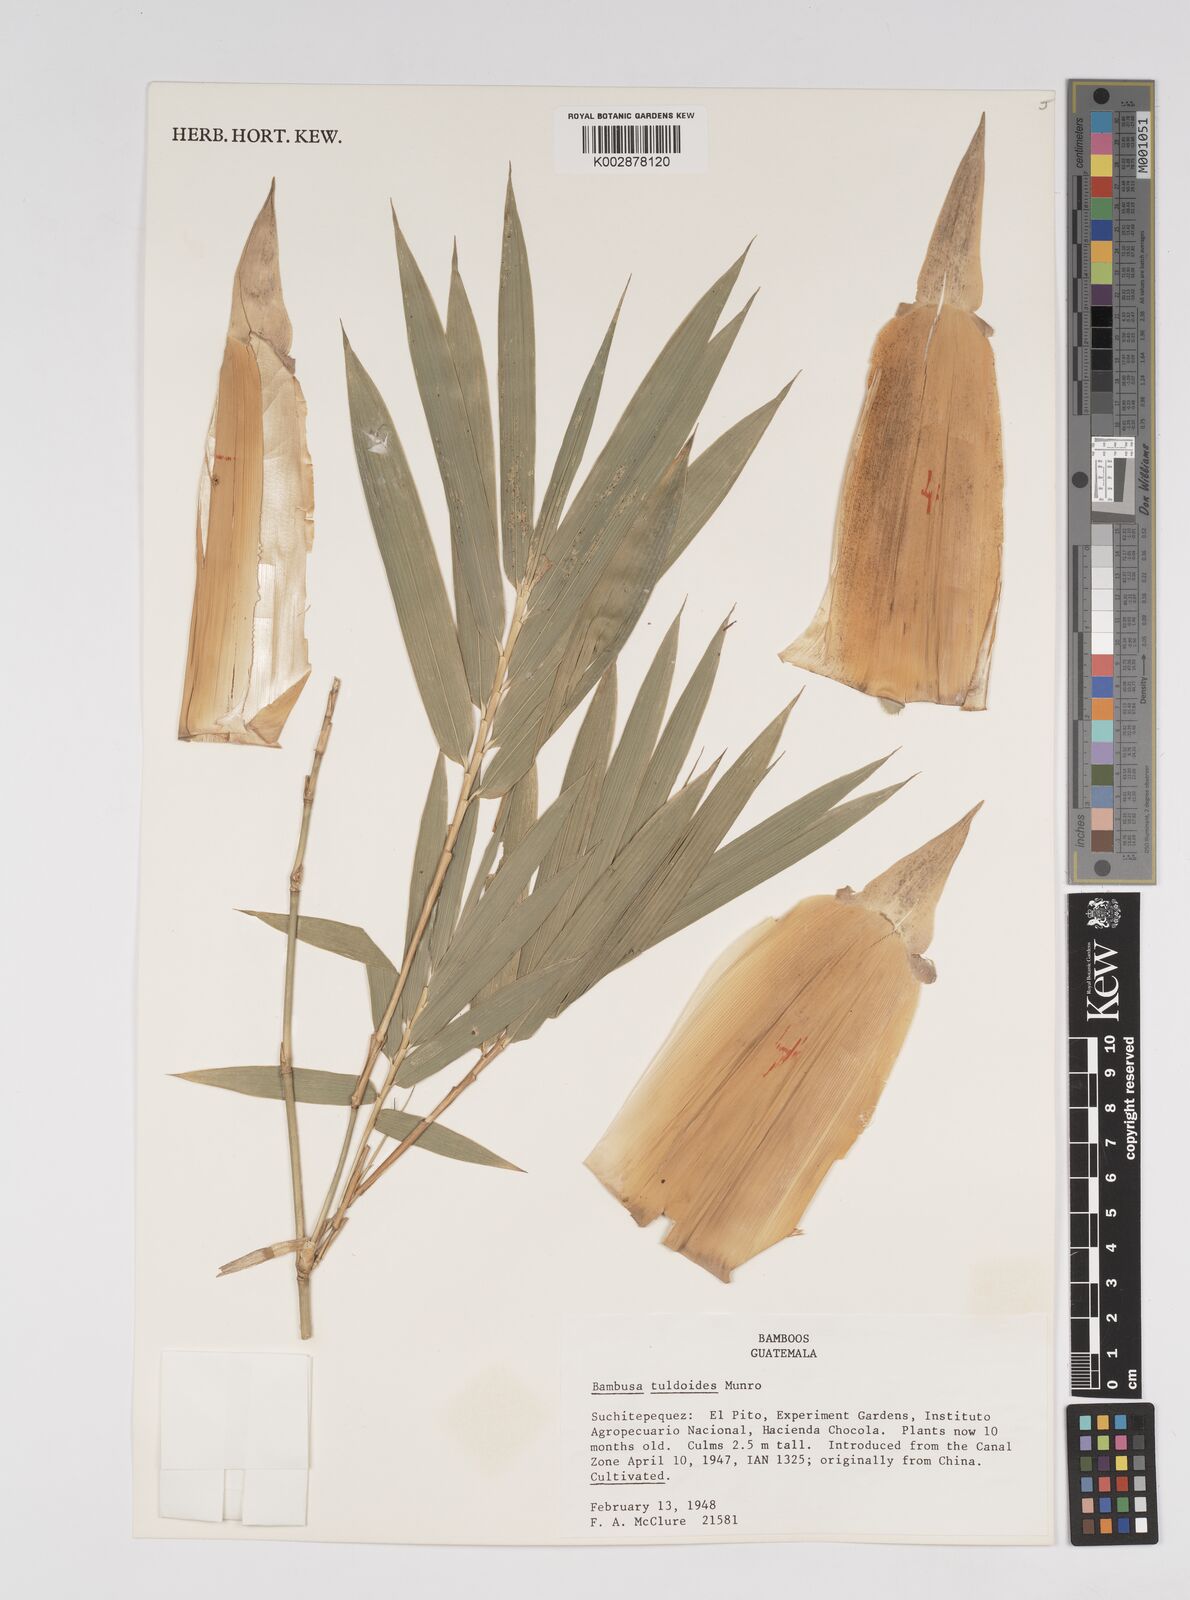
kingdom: Plantae
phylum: Tracheophyta
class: Liliopsida
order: Poales
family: Poaceae
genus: Bambusa
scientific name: Bambusa tuldoides
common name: Verdant bamboo
